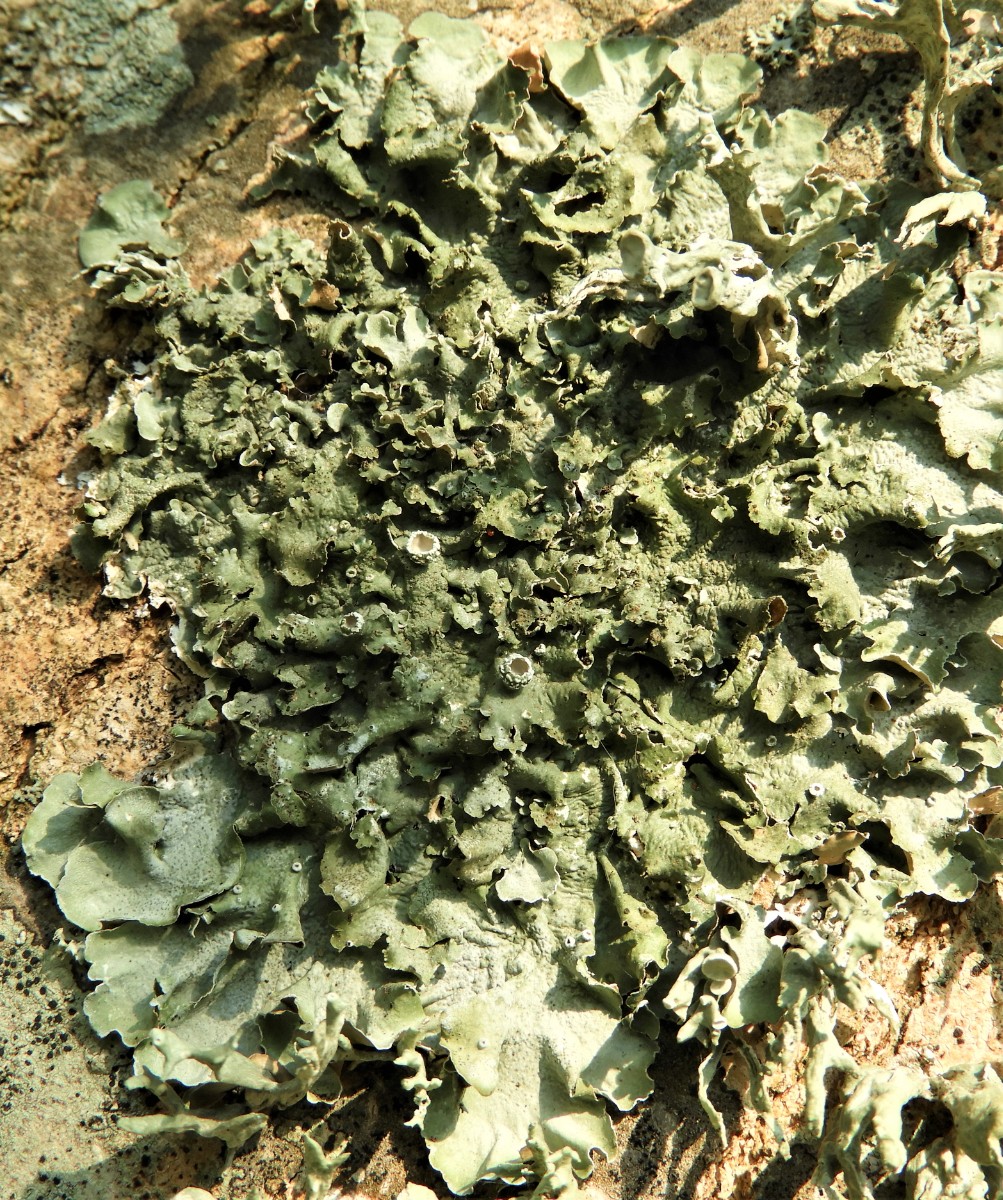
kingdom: Fungi
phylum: Ascomycota
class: Lecanoromycetes
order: Lecanorales
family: Parmeliaceae
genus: Pleurosticta
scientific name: Pleurosticta acetabulum
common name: stor skållav
